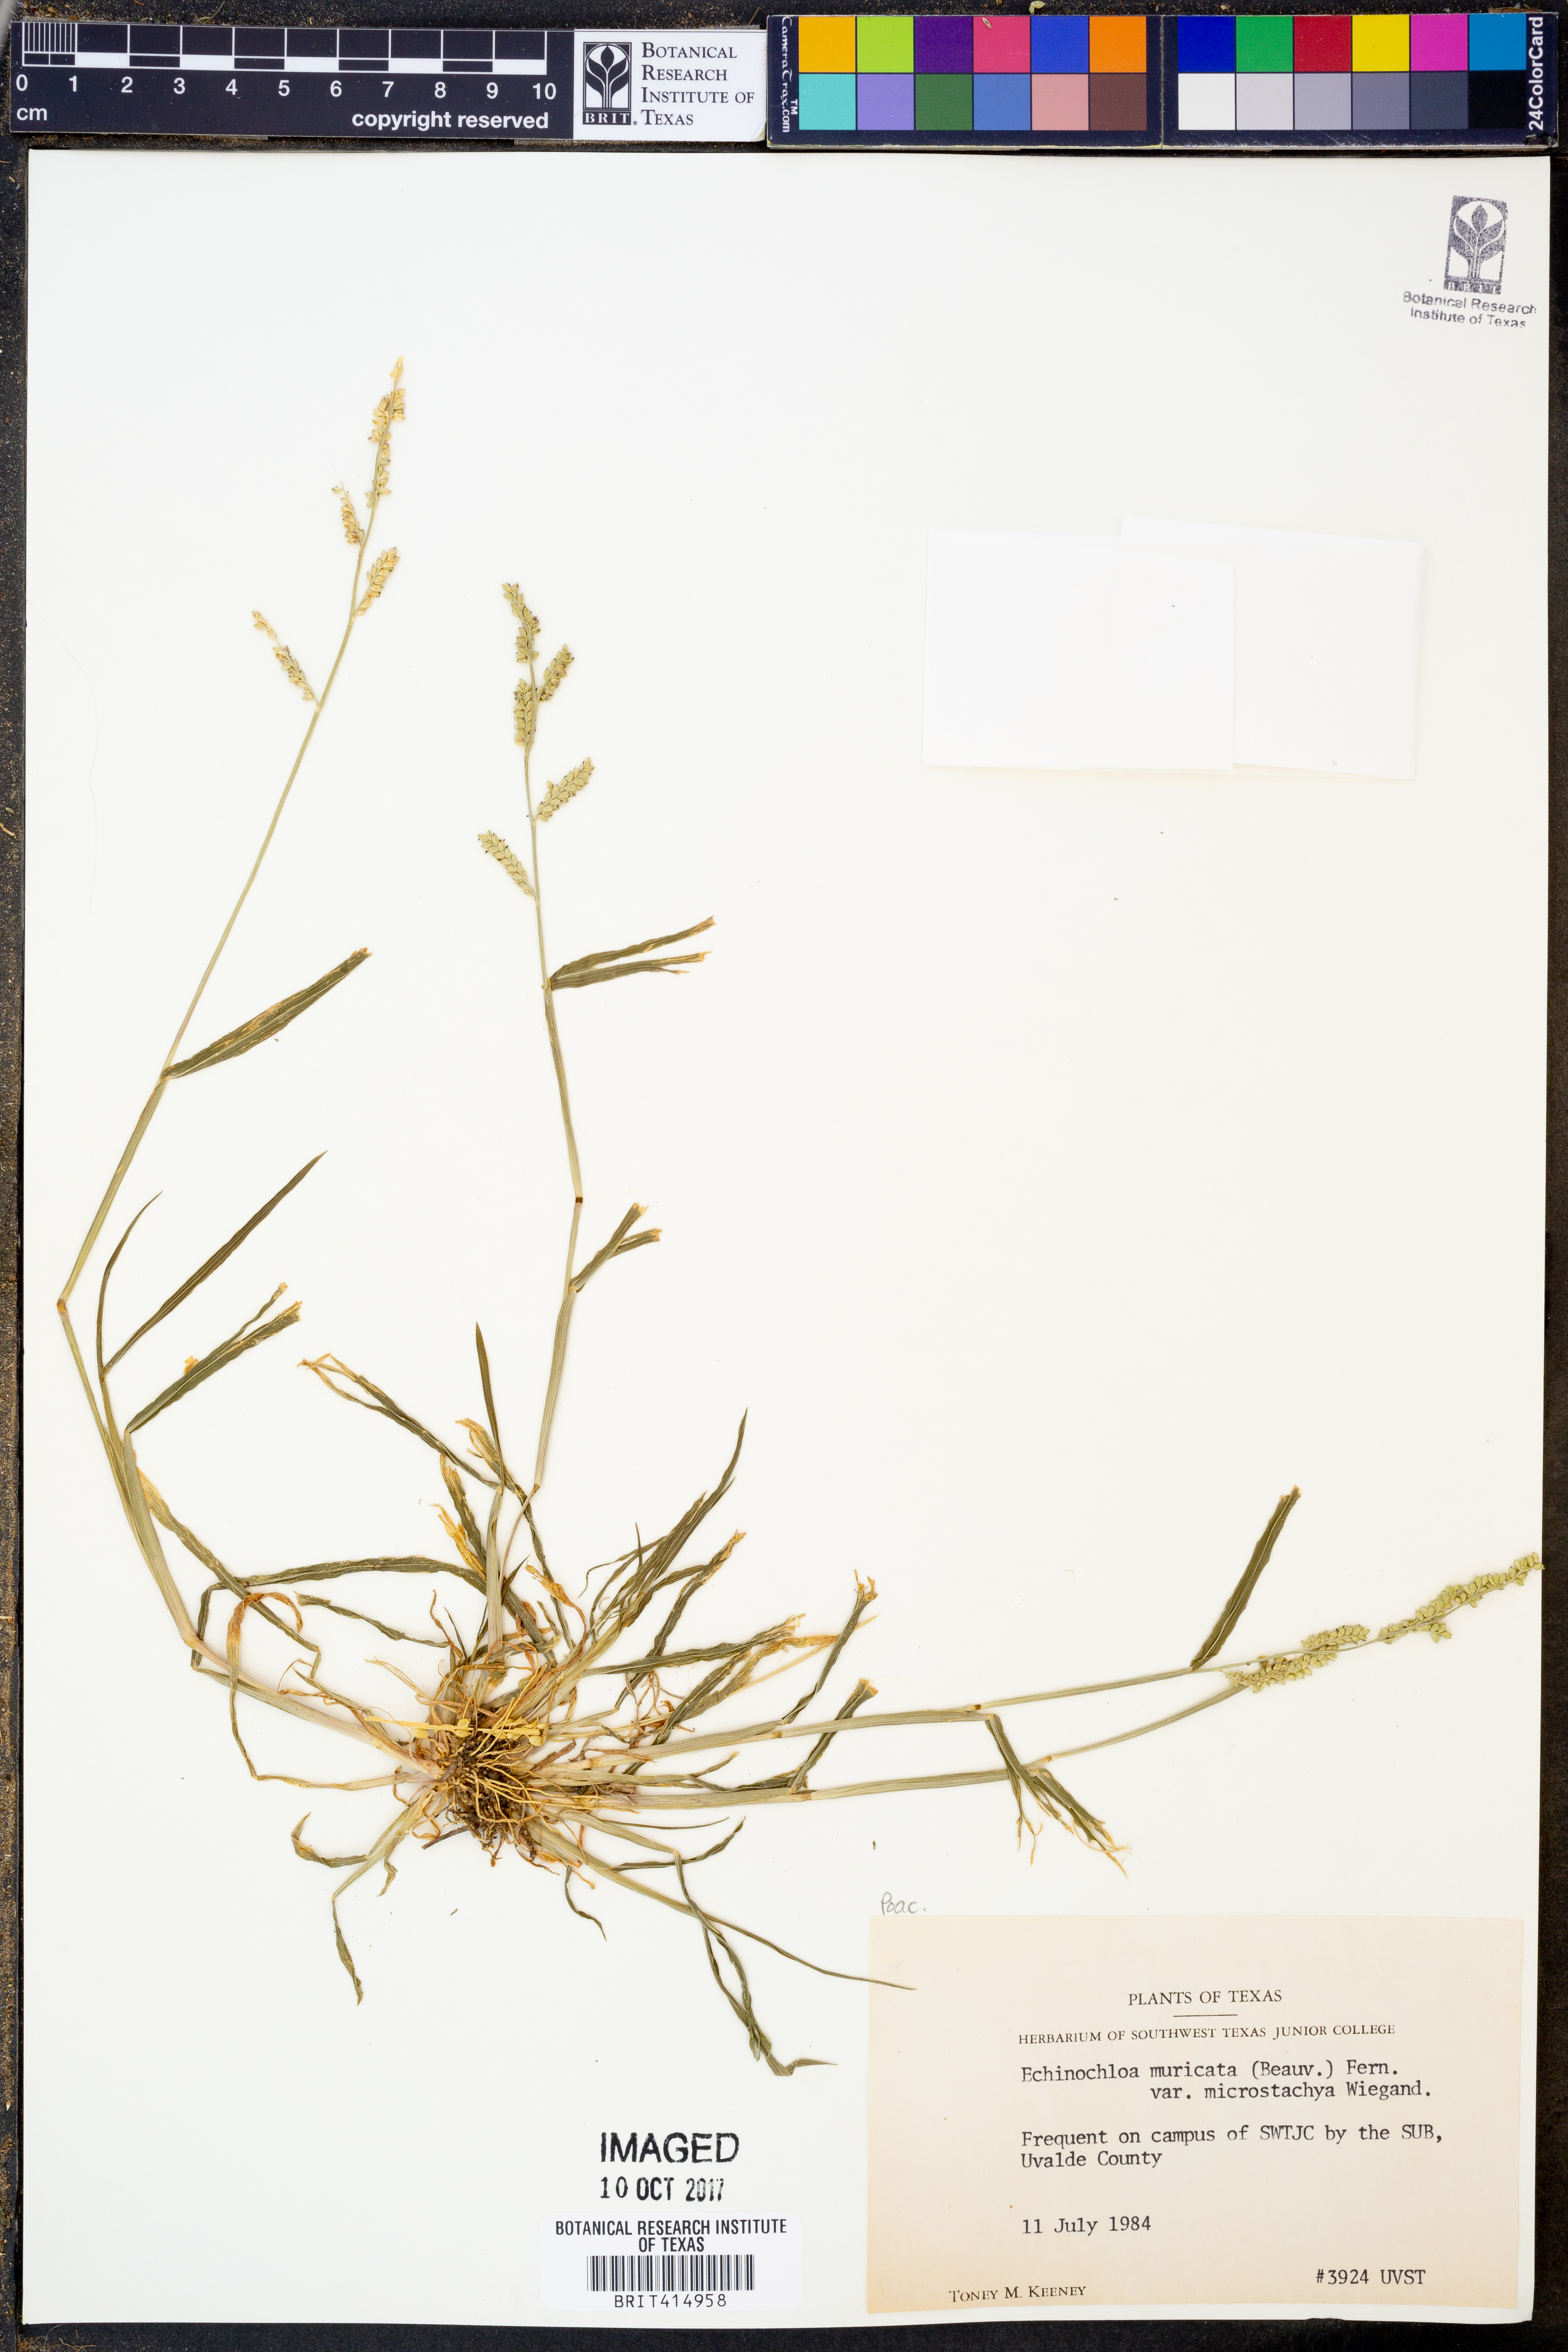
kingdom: Plantae
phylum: Tracheophyta
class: Liliopsida
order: Poales
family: Poaceae
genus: Echinochloa
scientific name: Echinochloa muricata
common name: American barnyard grass
